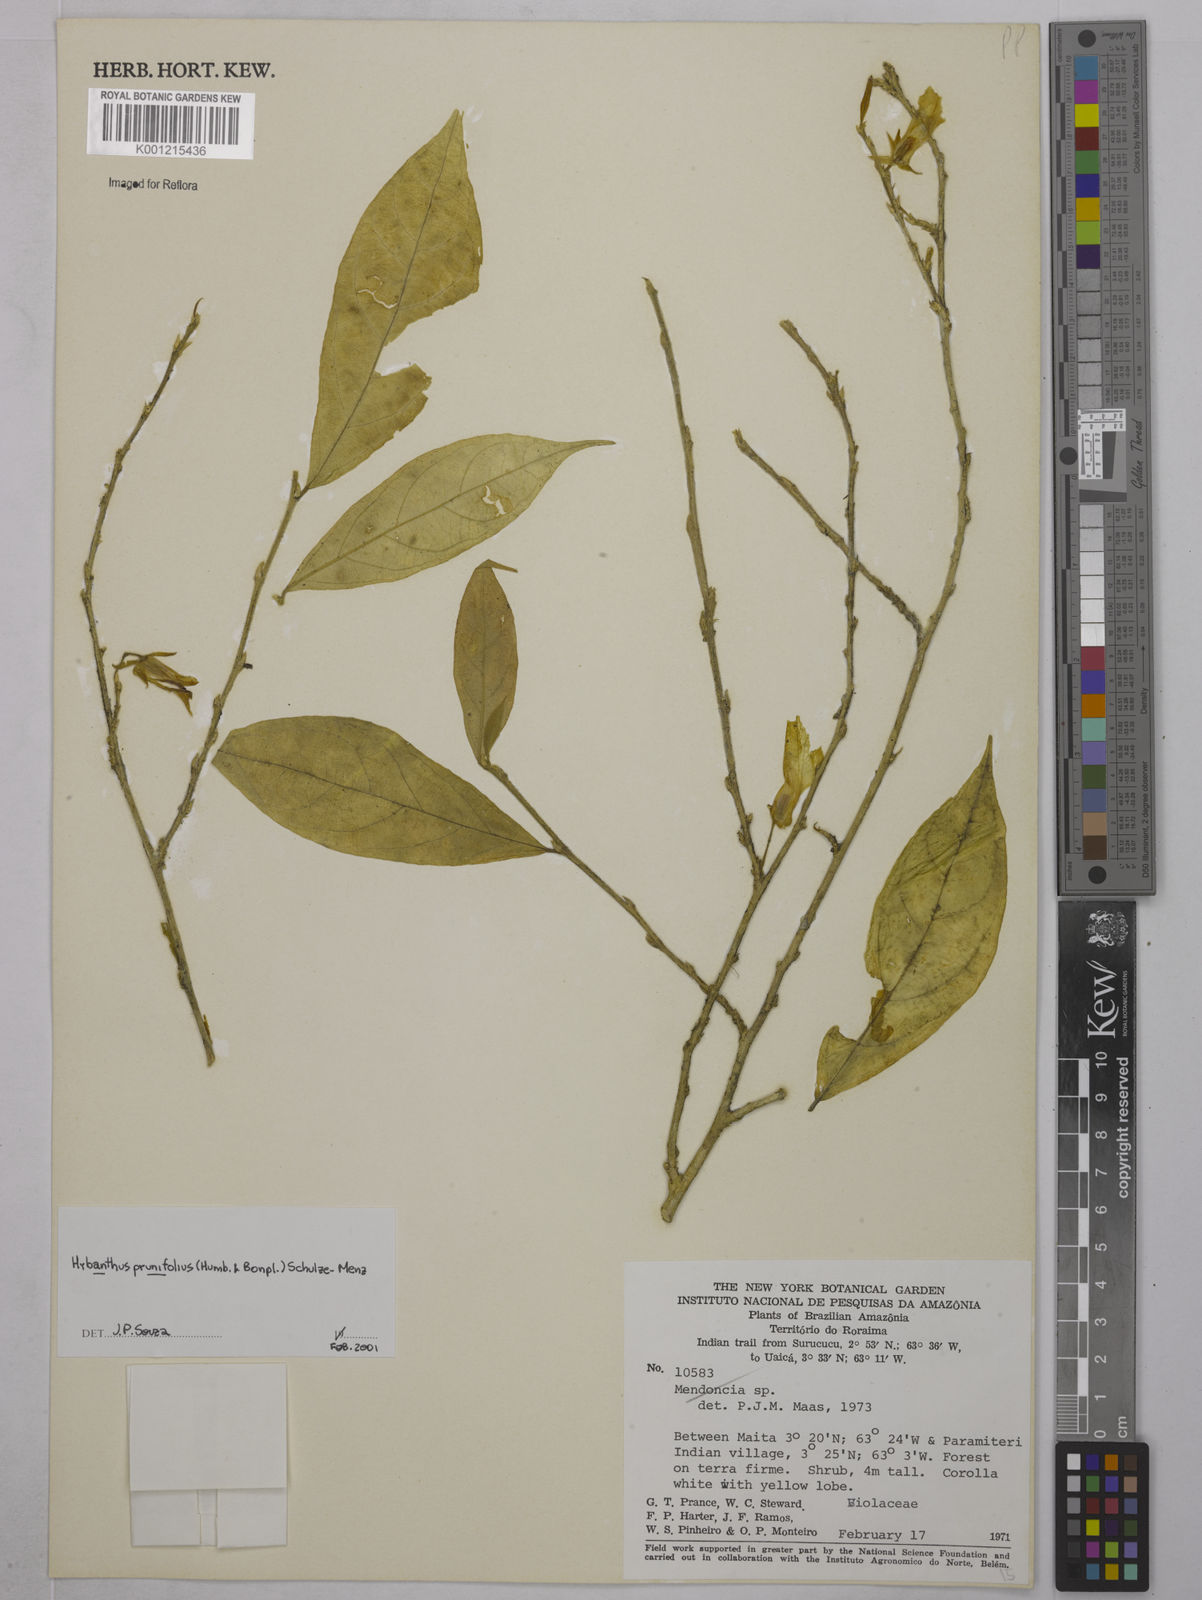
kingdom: Plantae
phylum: Tracheophyta
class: Magnoliopsida
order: Malpighiales
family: Violaceae
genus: Pombalia
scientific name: Pombalia prunifolia
